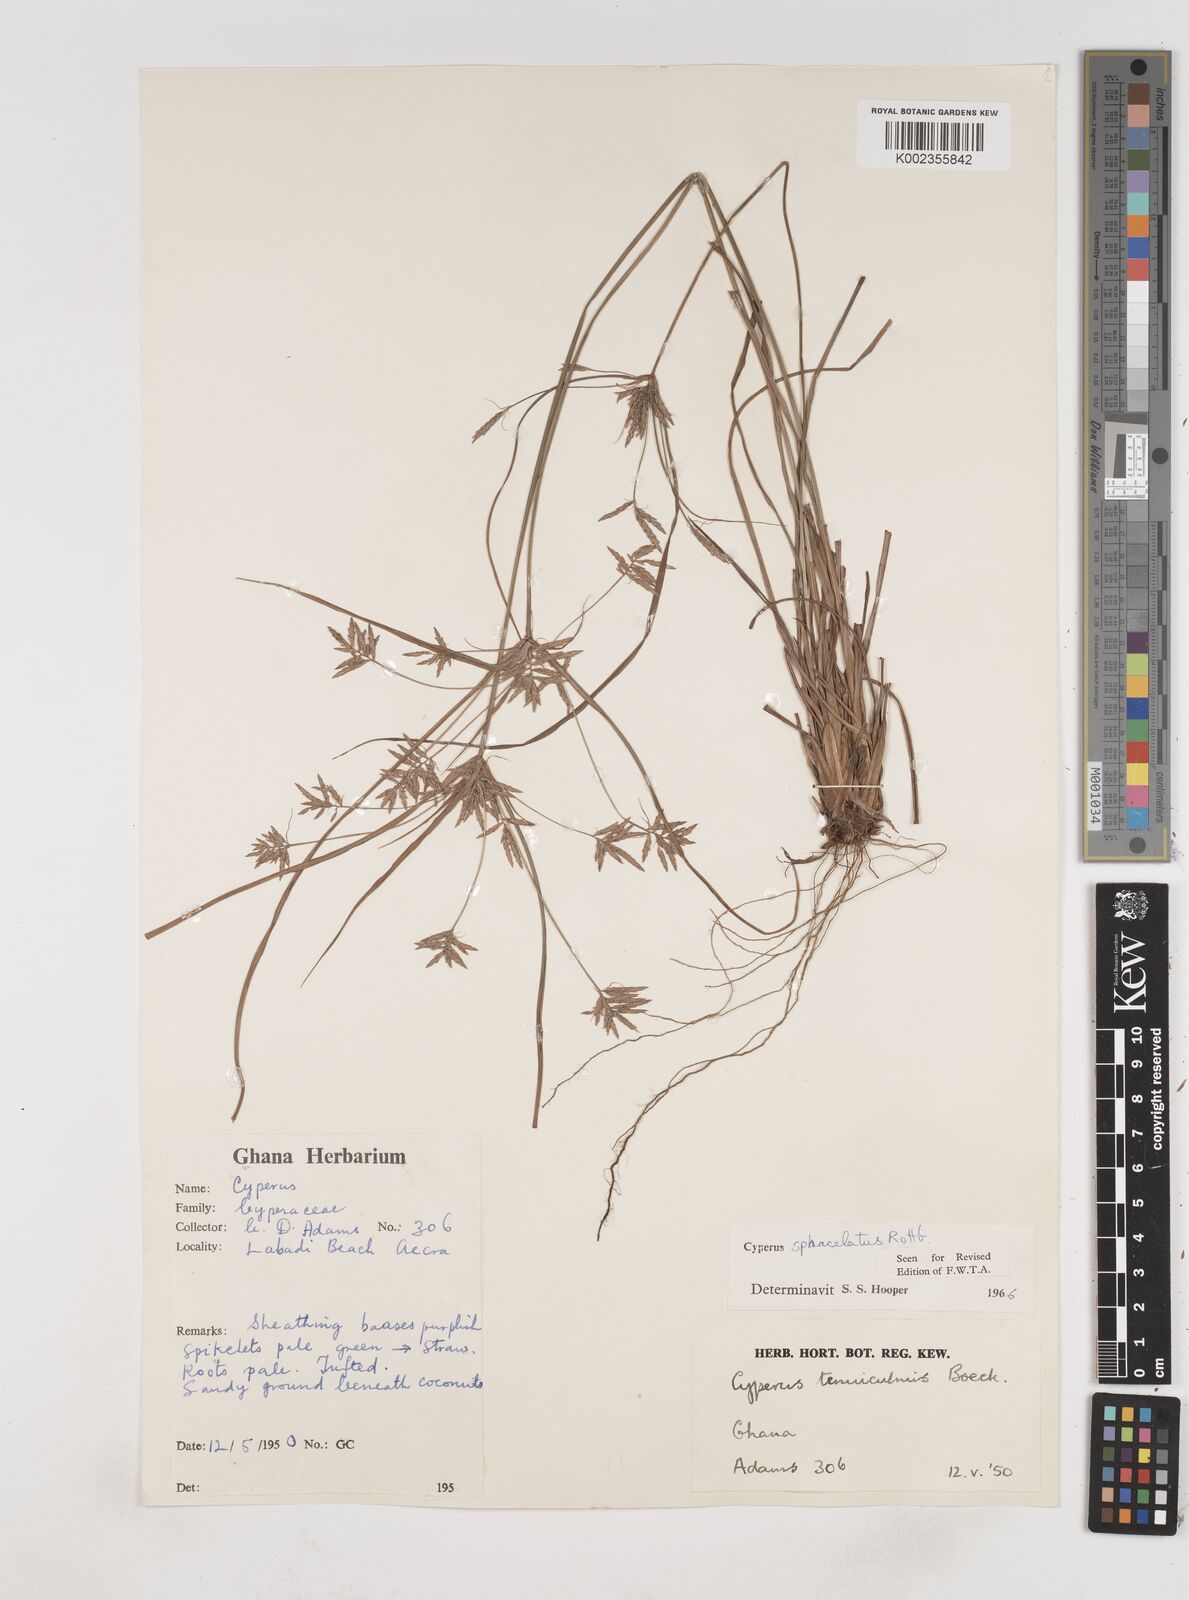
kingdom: Plantae
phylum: Tracheophyta
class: Liliopsida
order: Poales
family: Cyperaceae
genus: Cyperus
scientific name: Cyperus sphacelatus
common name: Roadside flatsedge
